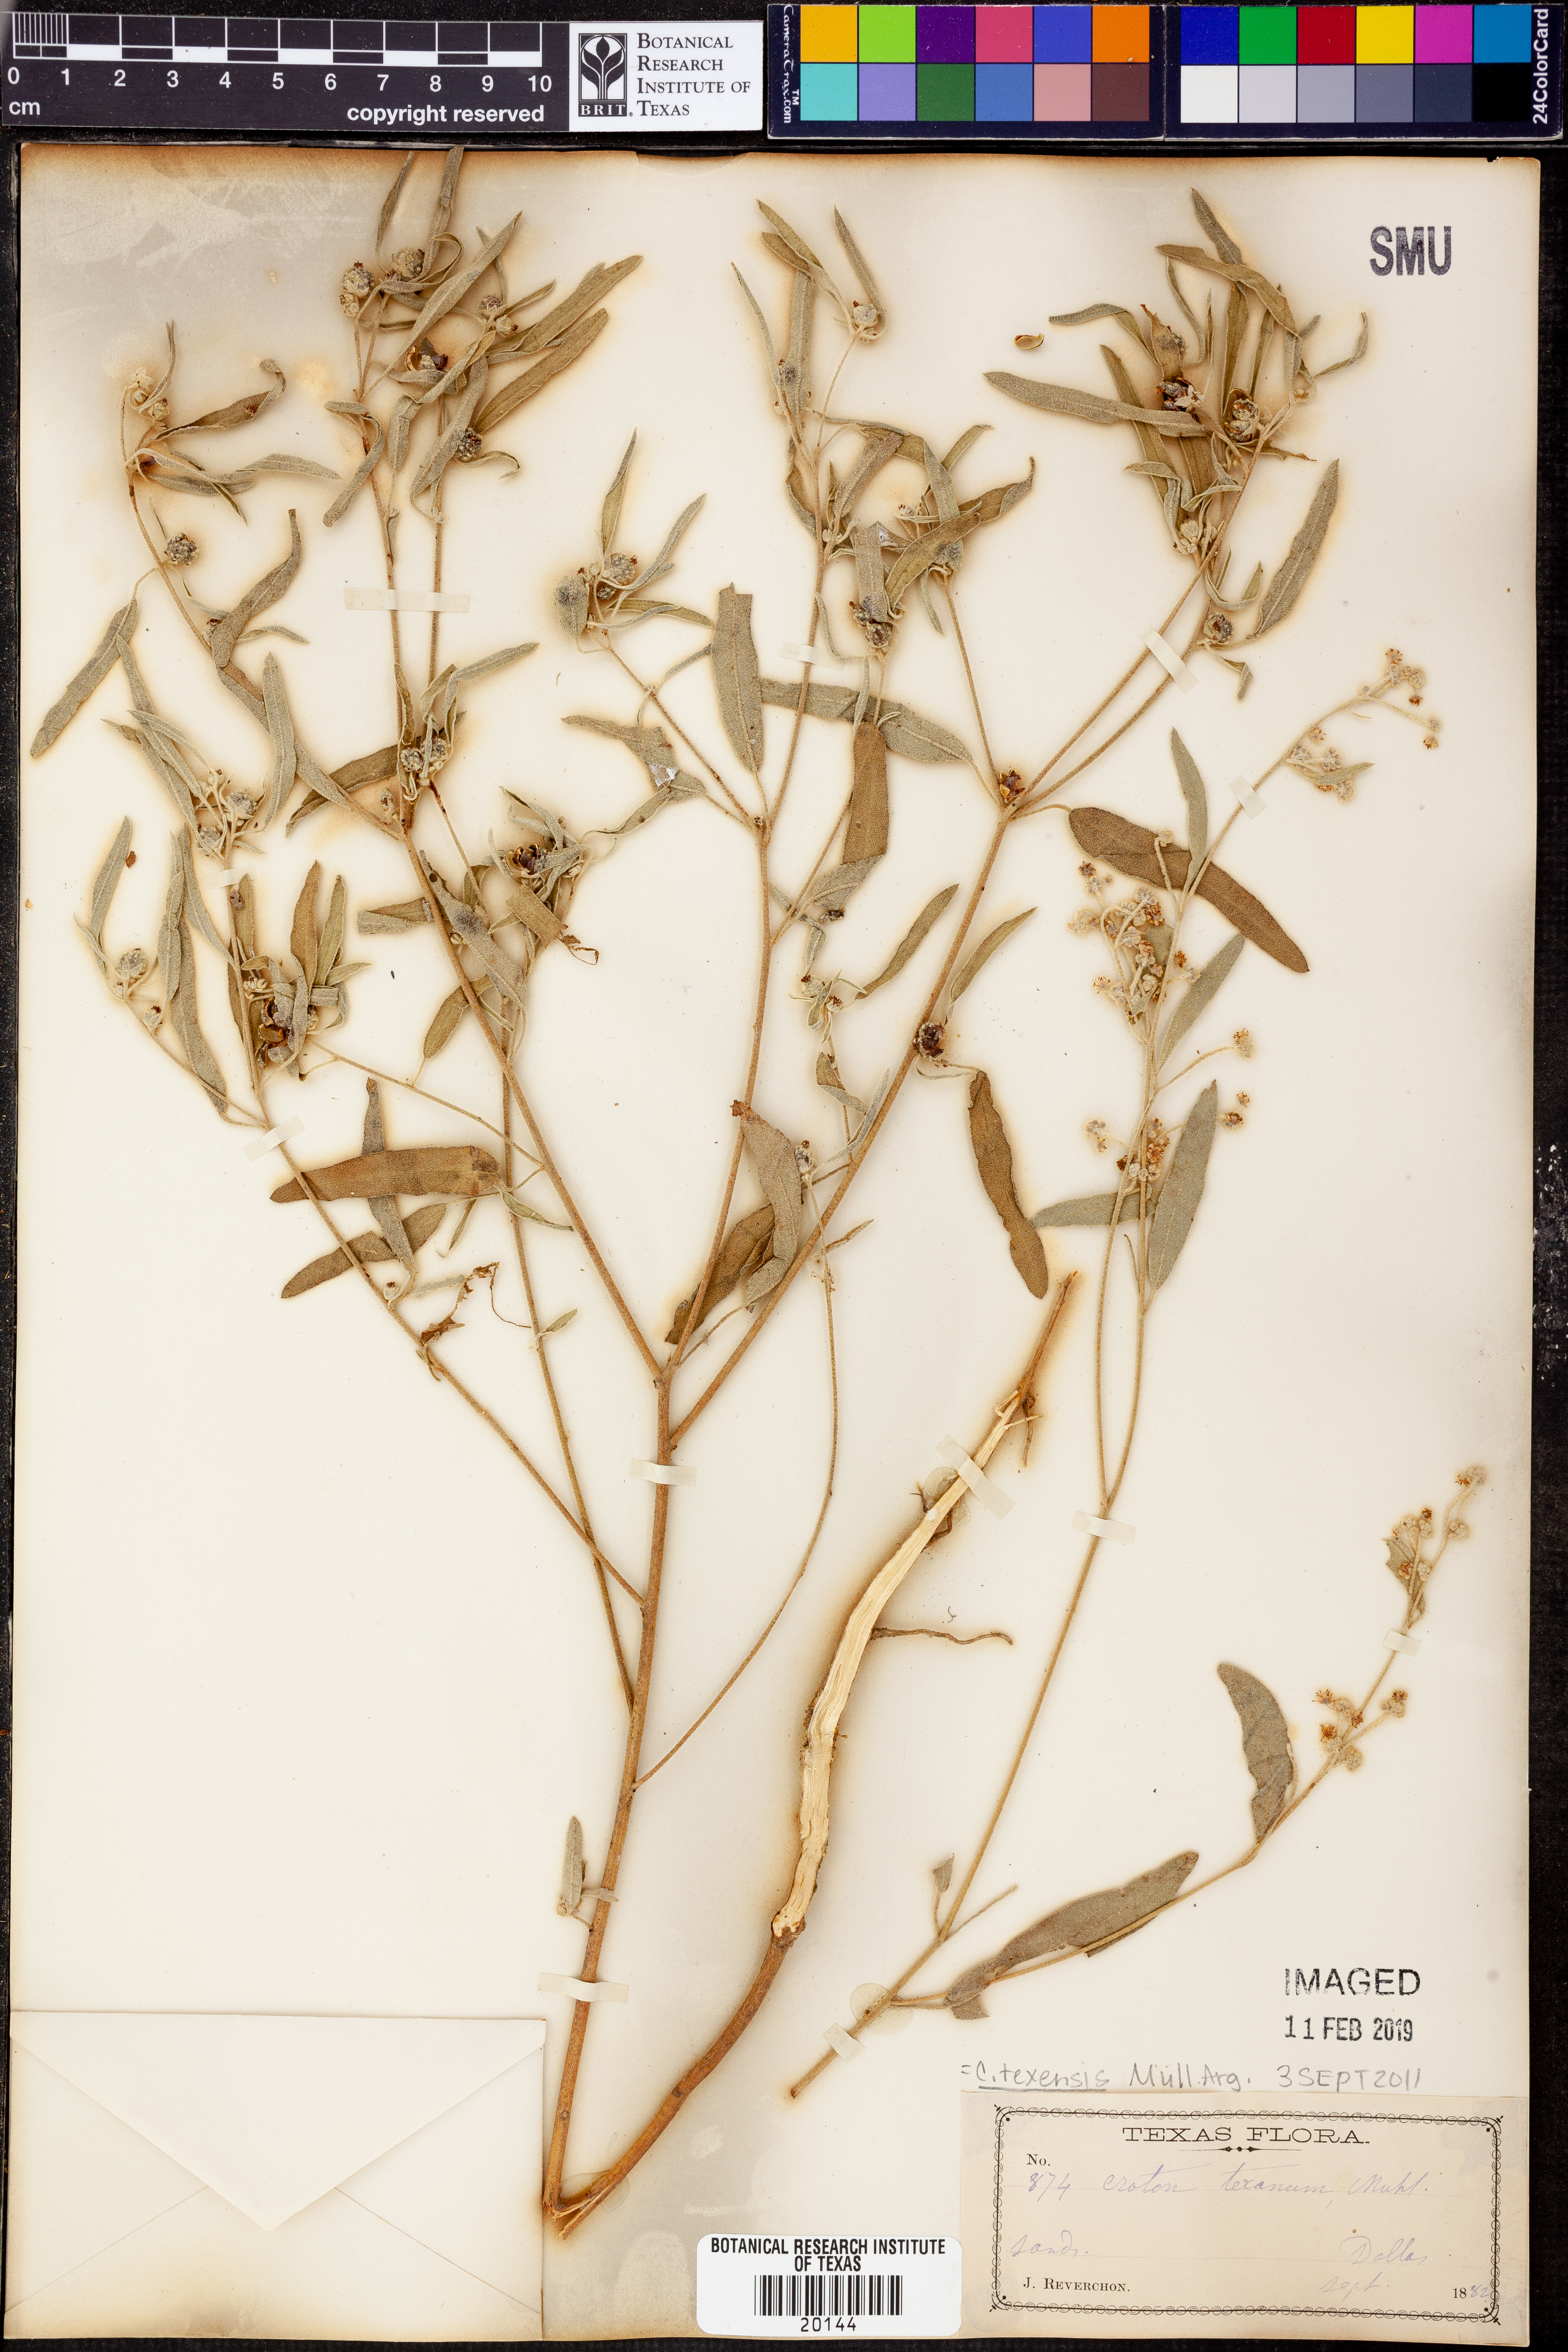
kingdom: Plantae
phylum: Tracheophyta
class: Magnoliopsida
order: Malpighiales
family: Euphorbiaceae
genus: Croton
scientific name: Croton texensis
